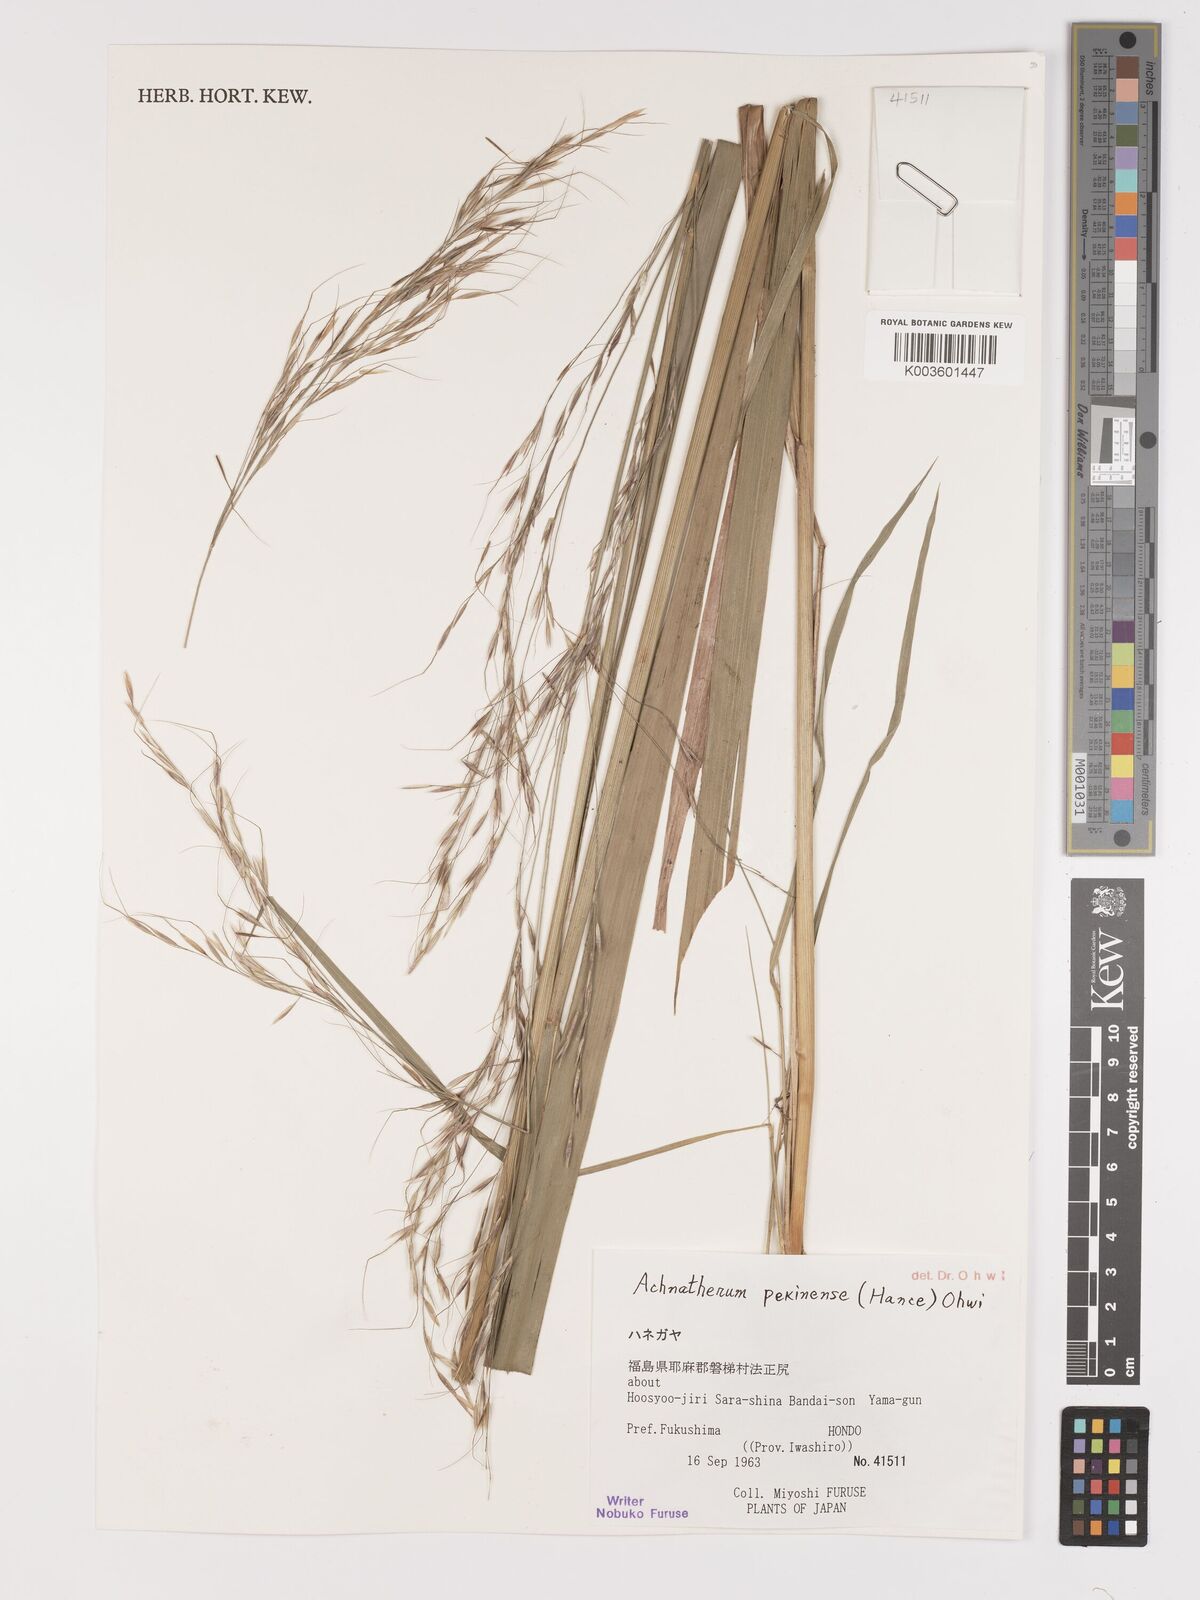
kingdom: Plantae
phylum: Tracheophyta
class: Liliopsida
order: Poales
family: Poaceae
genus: Achnatherum
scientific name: Achnatherum pekinense
